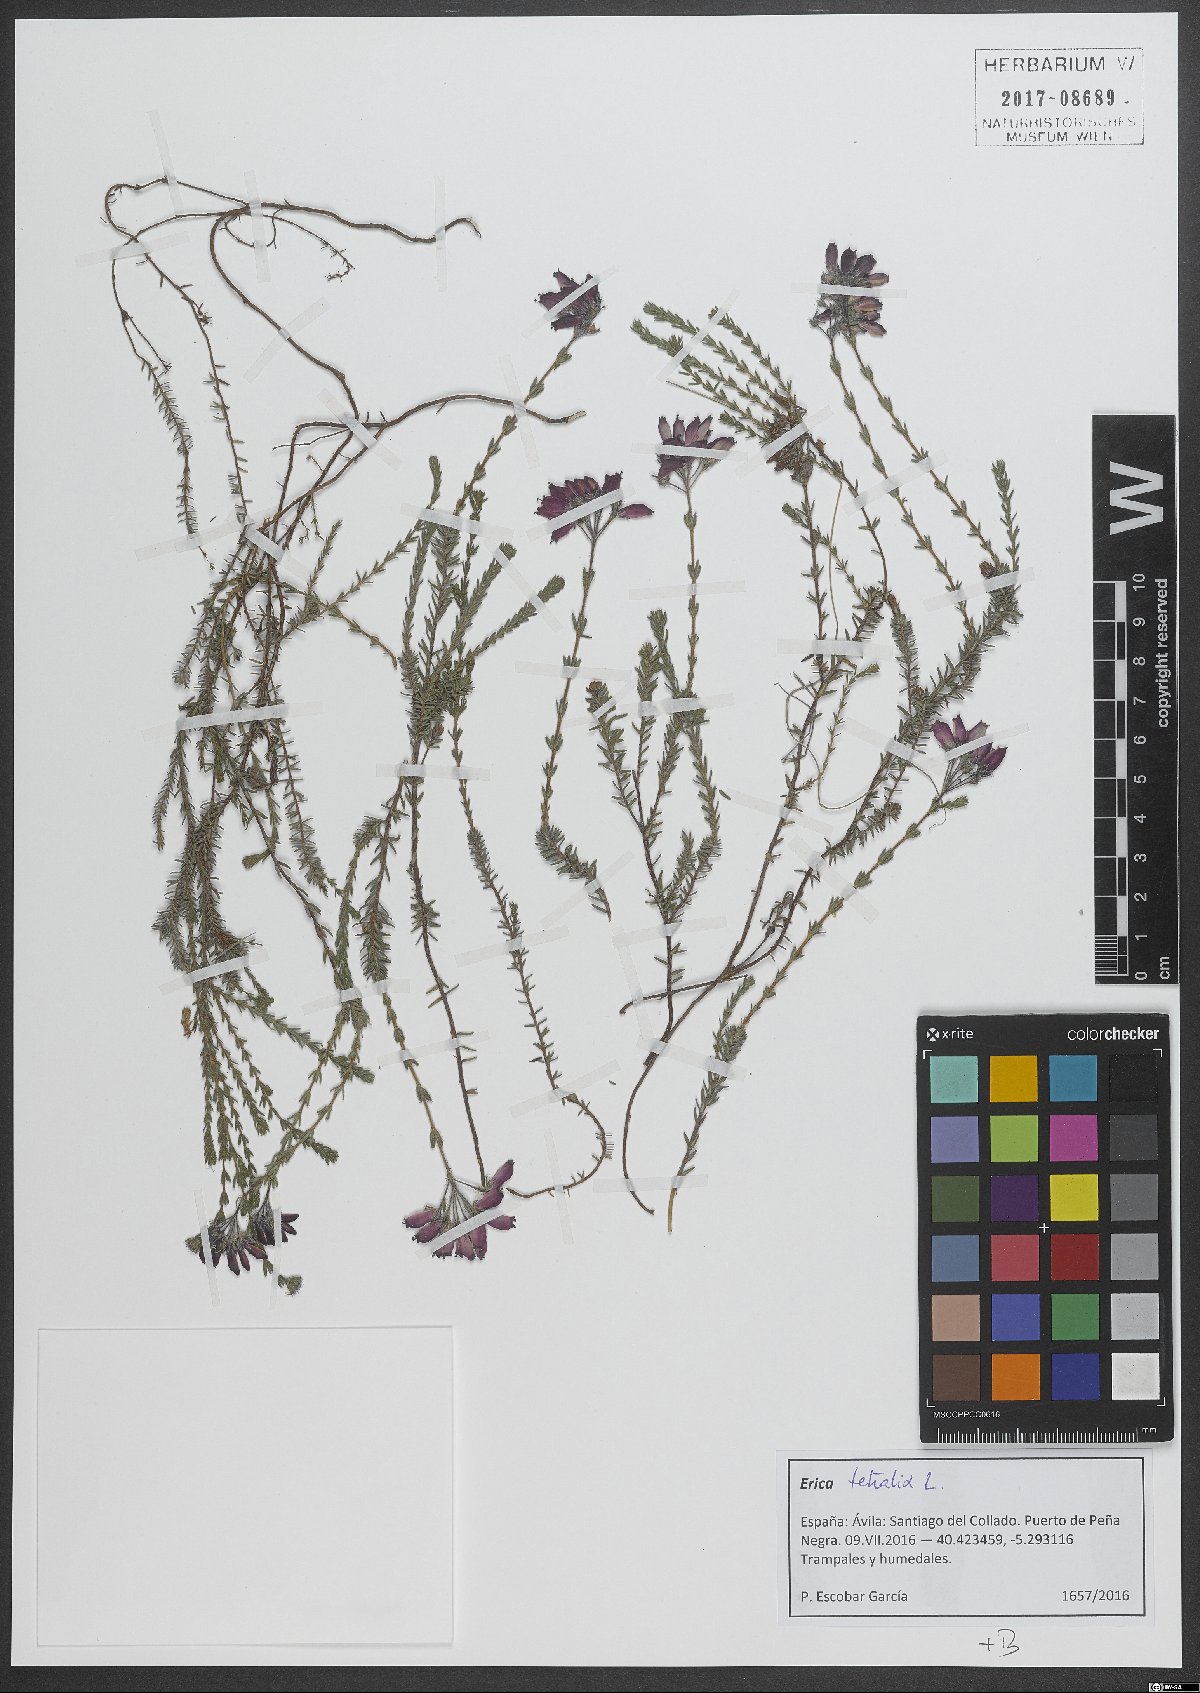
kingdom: Plantae
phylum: Tracheophyta
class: Magnoliopsida
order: Ericales
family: Ericaceae
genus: Erica
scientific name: Erica tetralix
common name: Cross-leaved heath
